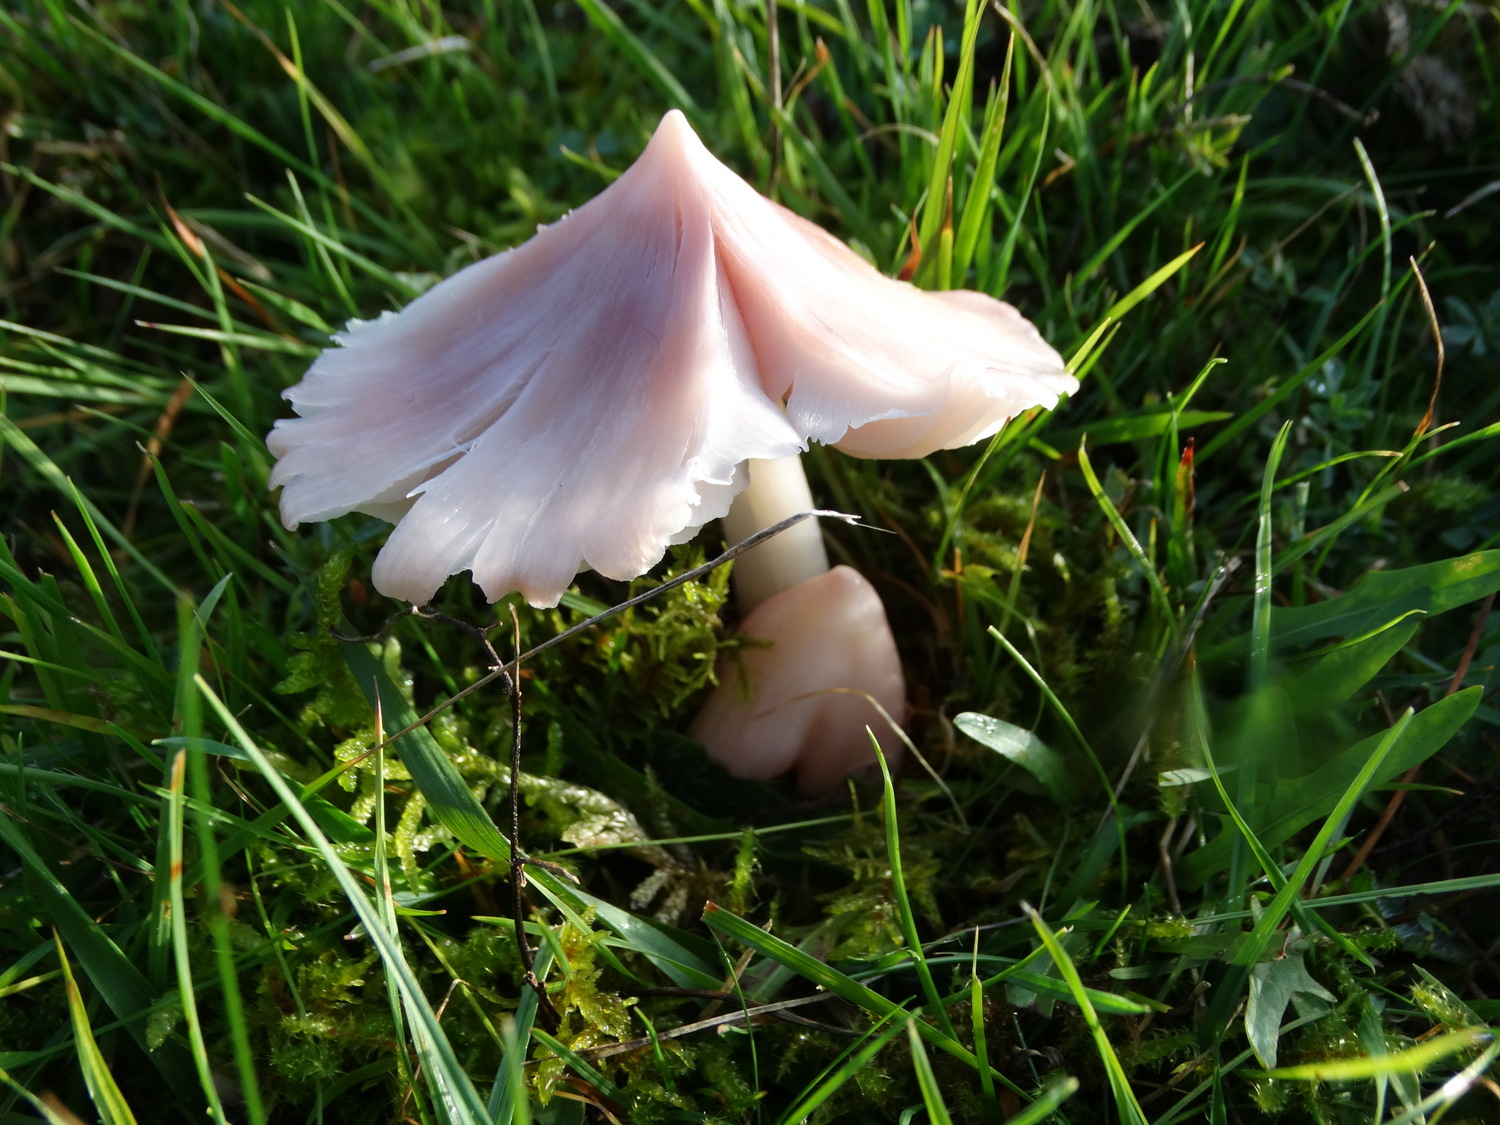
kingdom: Fungi
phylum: Basidiomycota
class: Agaricomycetes
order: Agaricales
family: Hygrophoraceae
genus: Porpolomopsis
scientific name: Porpolomopsis calyptriformis
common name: rosenrød vokshat
